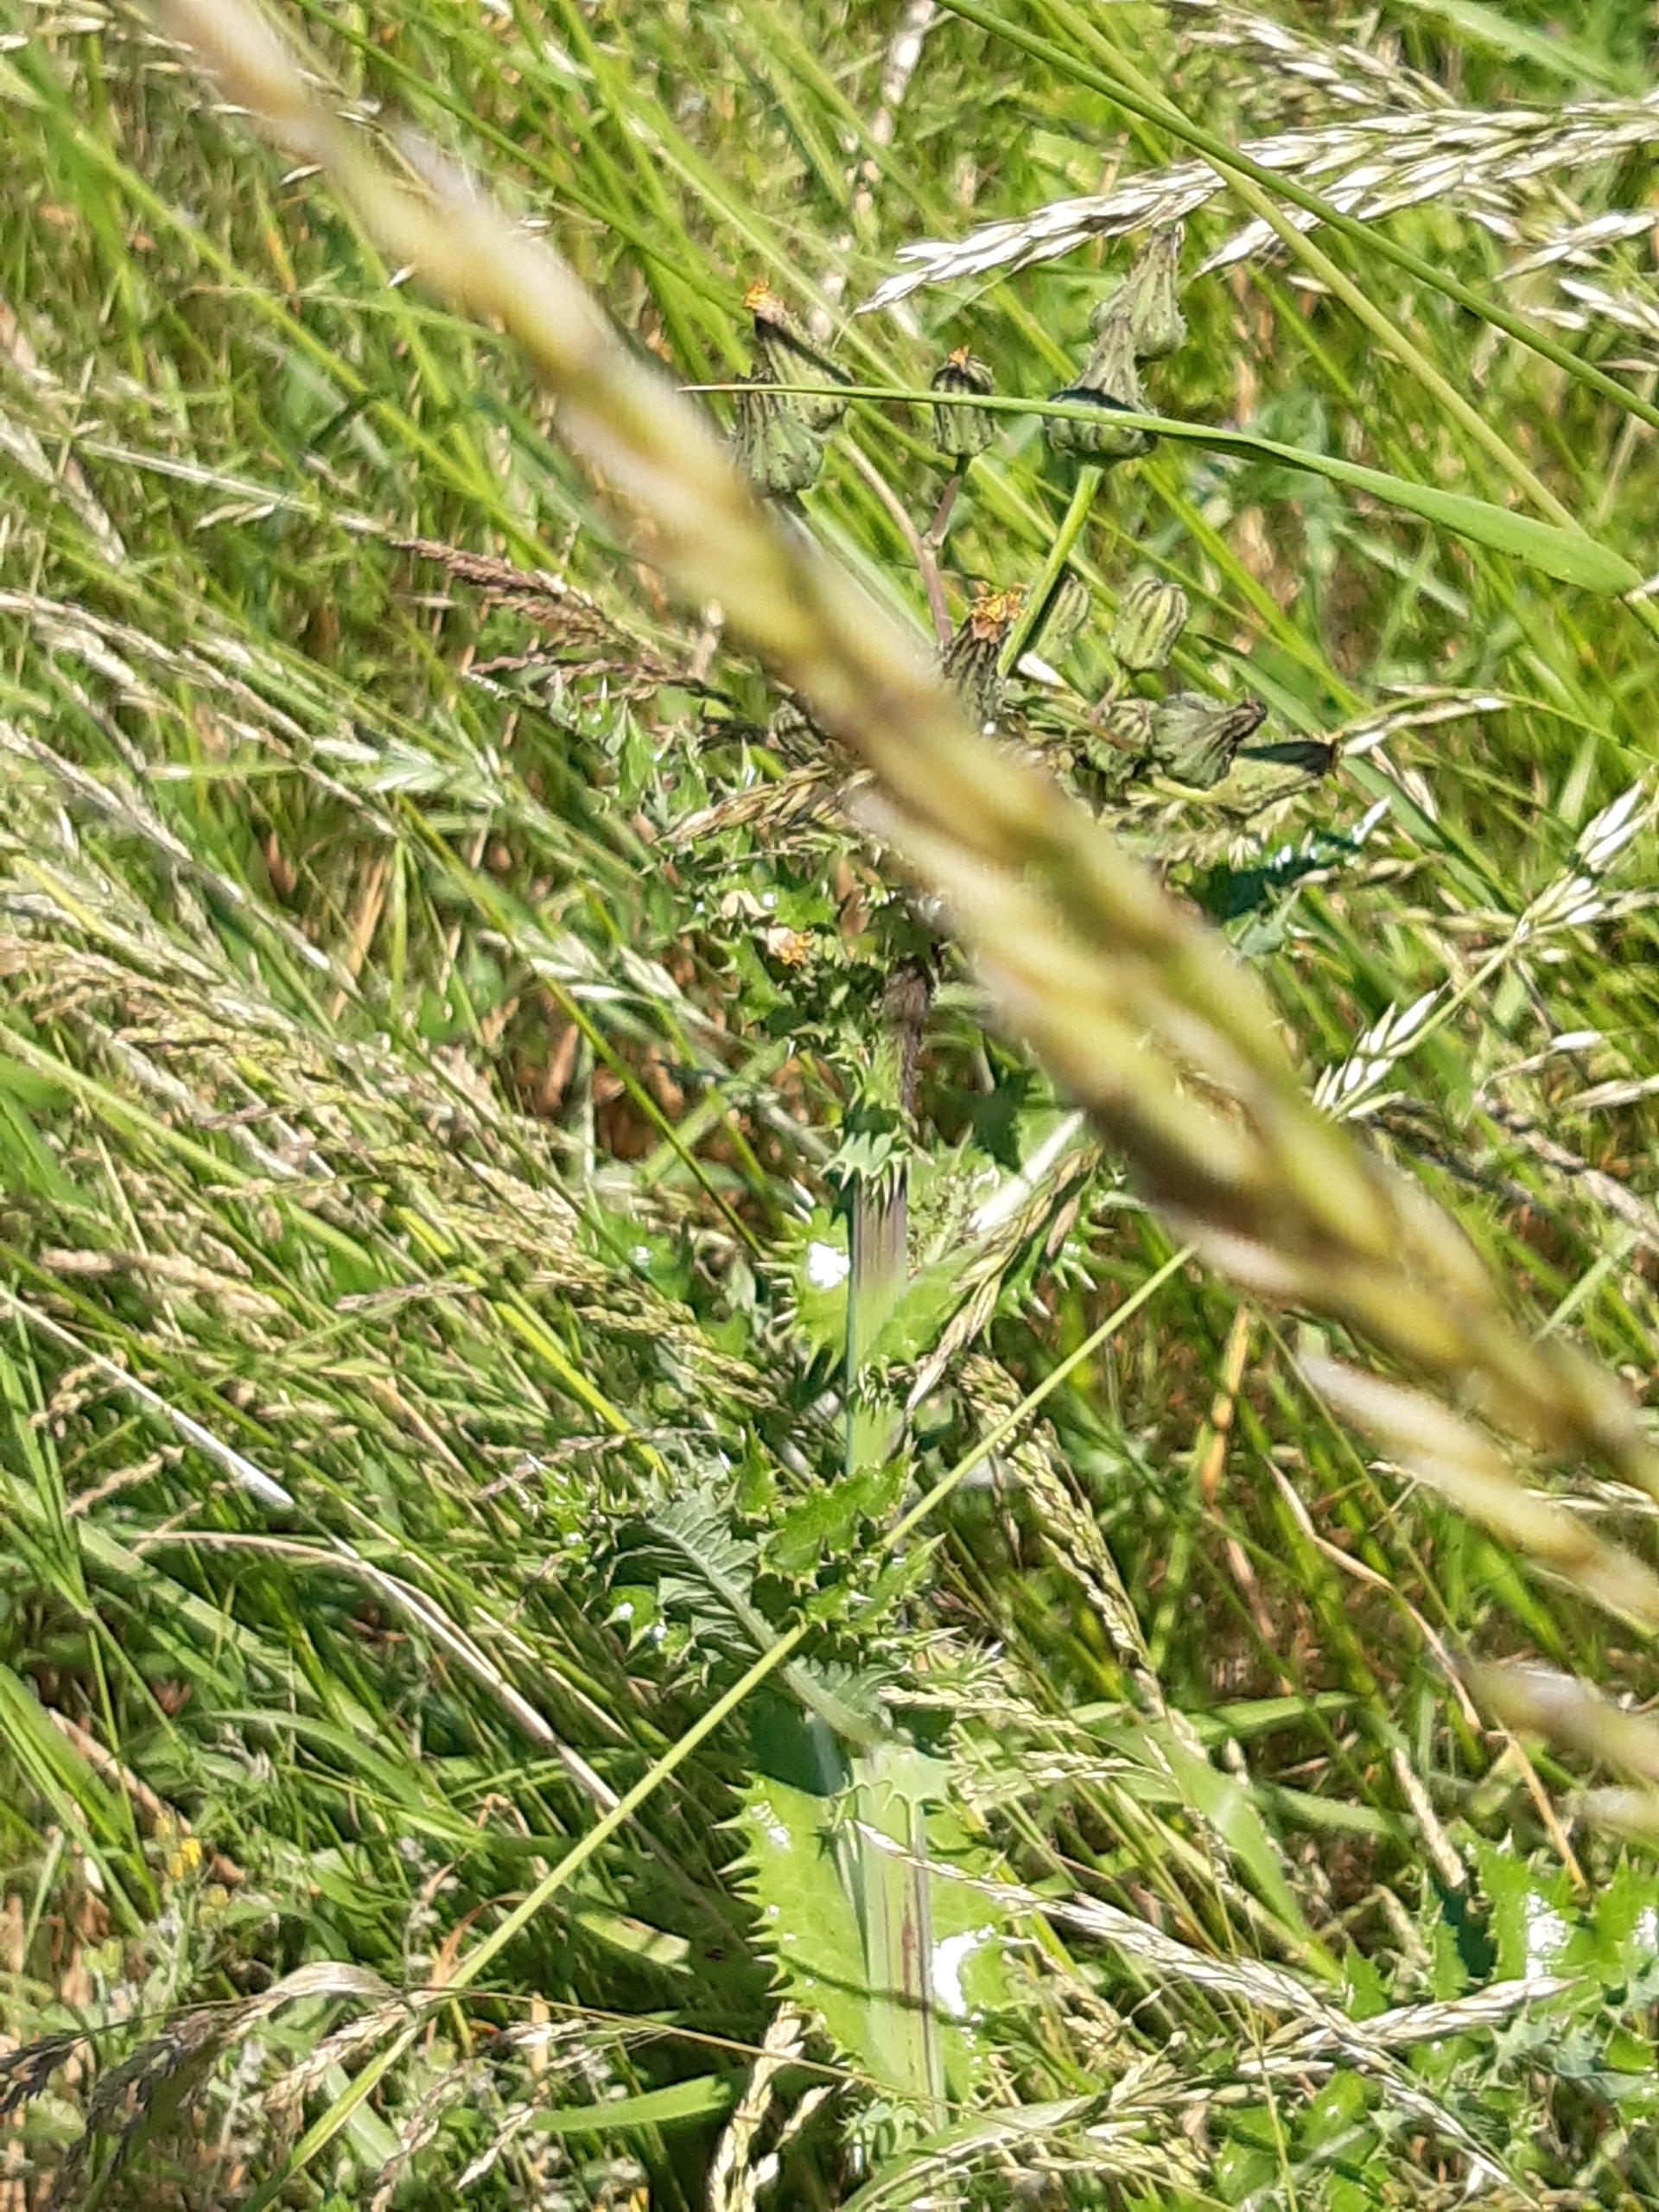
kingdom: Plantae
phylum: Tracheophyta
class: Magnoliopsida
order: Asterales
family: Asteraceae
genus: Sonchus
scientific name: Sonchus asper
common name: Ru svinemælk
